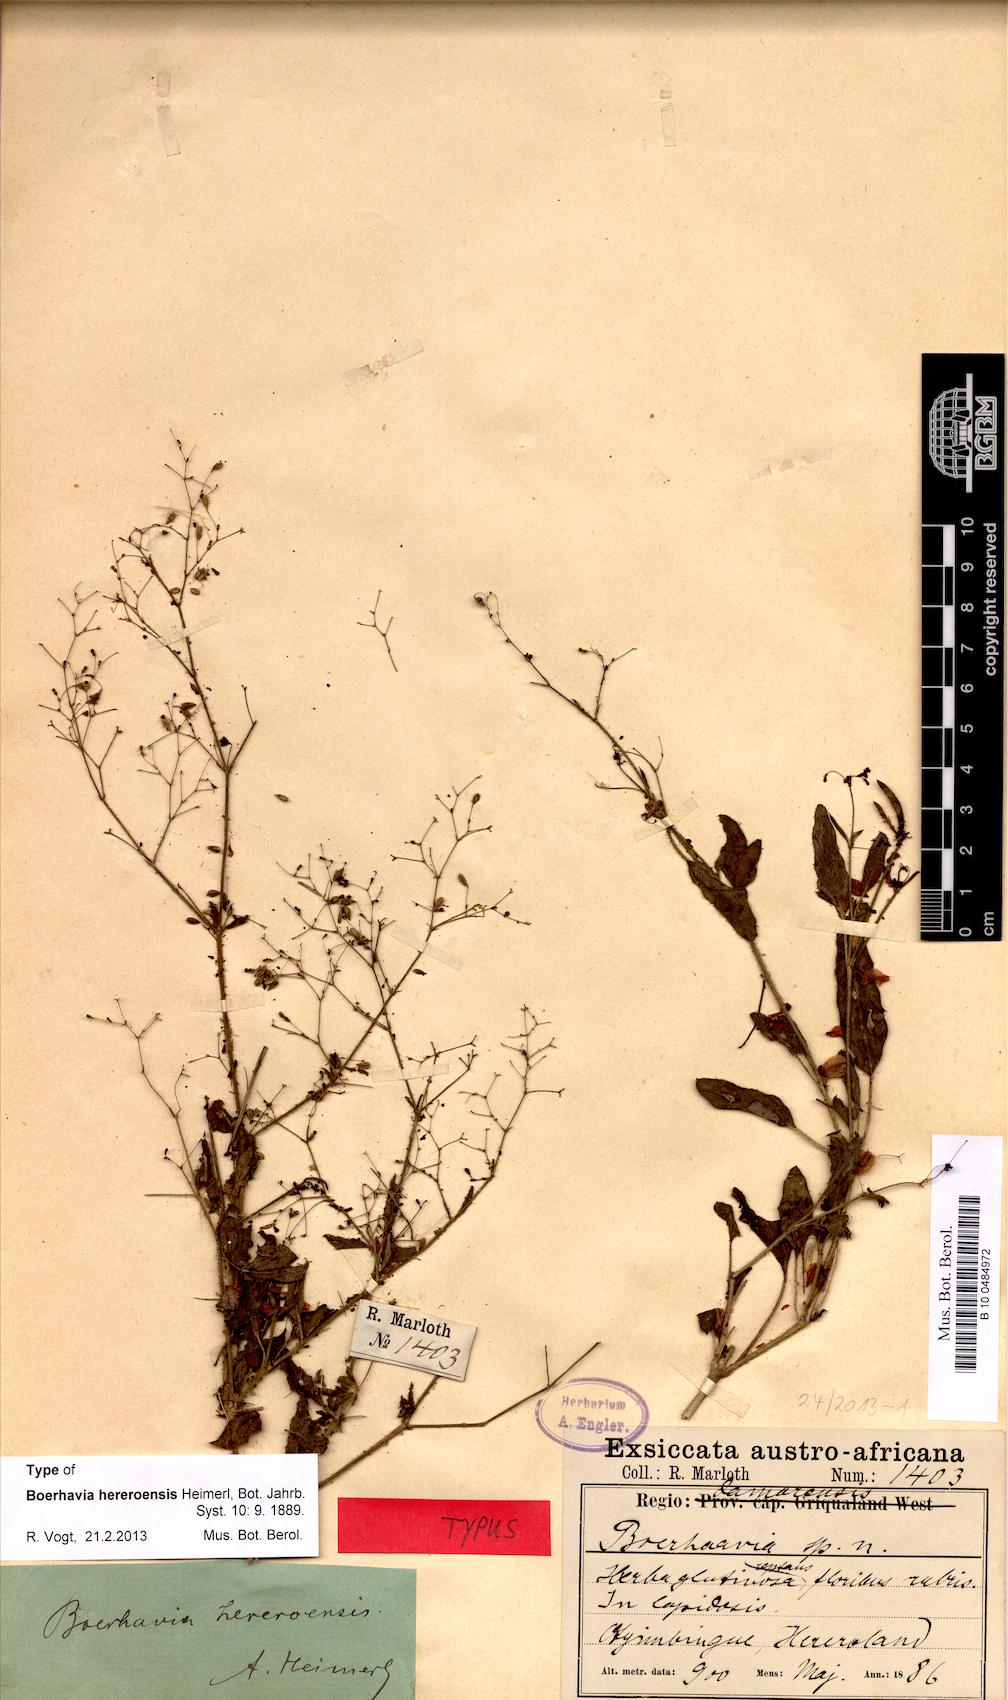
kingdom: Plantae
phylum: Tracheophyta
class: Magnoliopsida
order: Caryophyllales
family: Nyctaginaceae
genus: Boerhavia
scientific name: Boerhavia hereroensis
